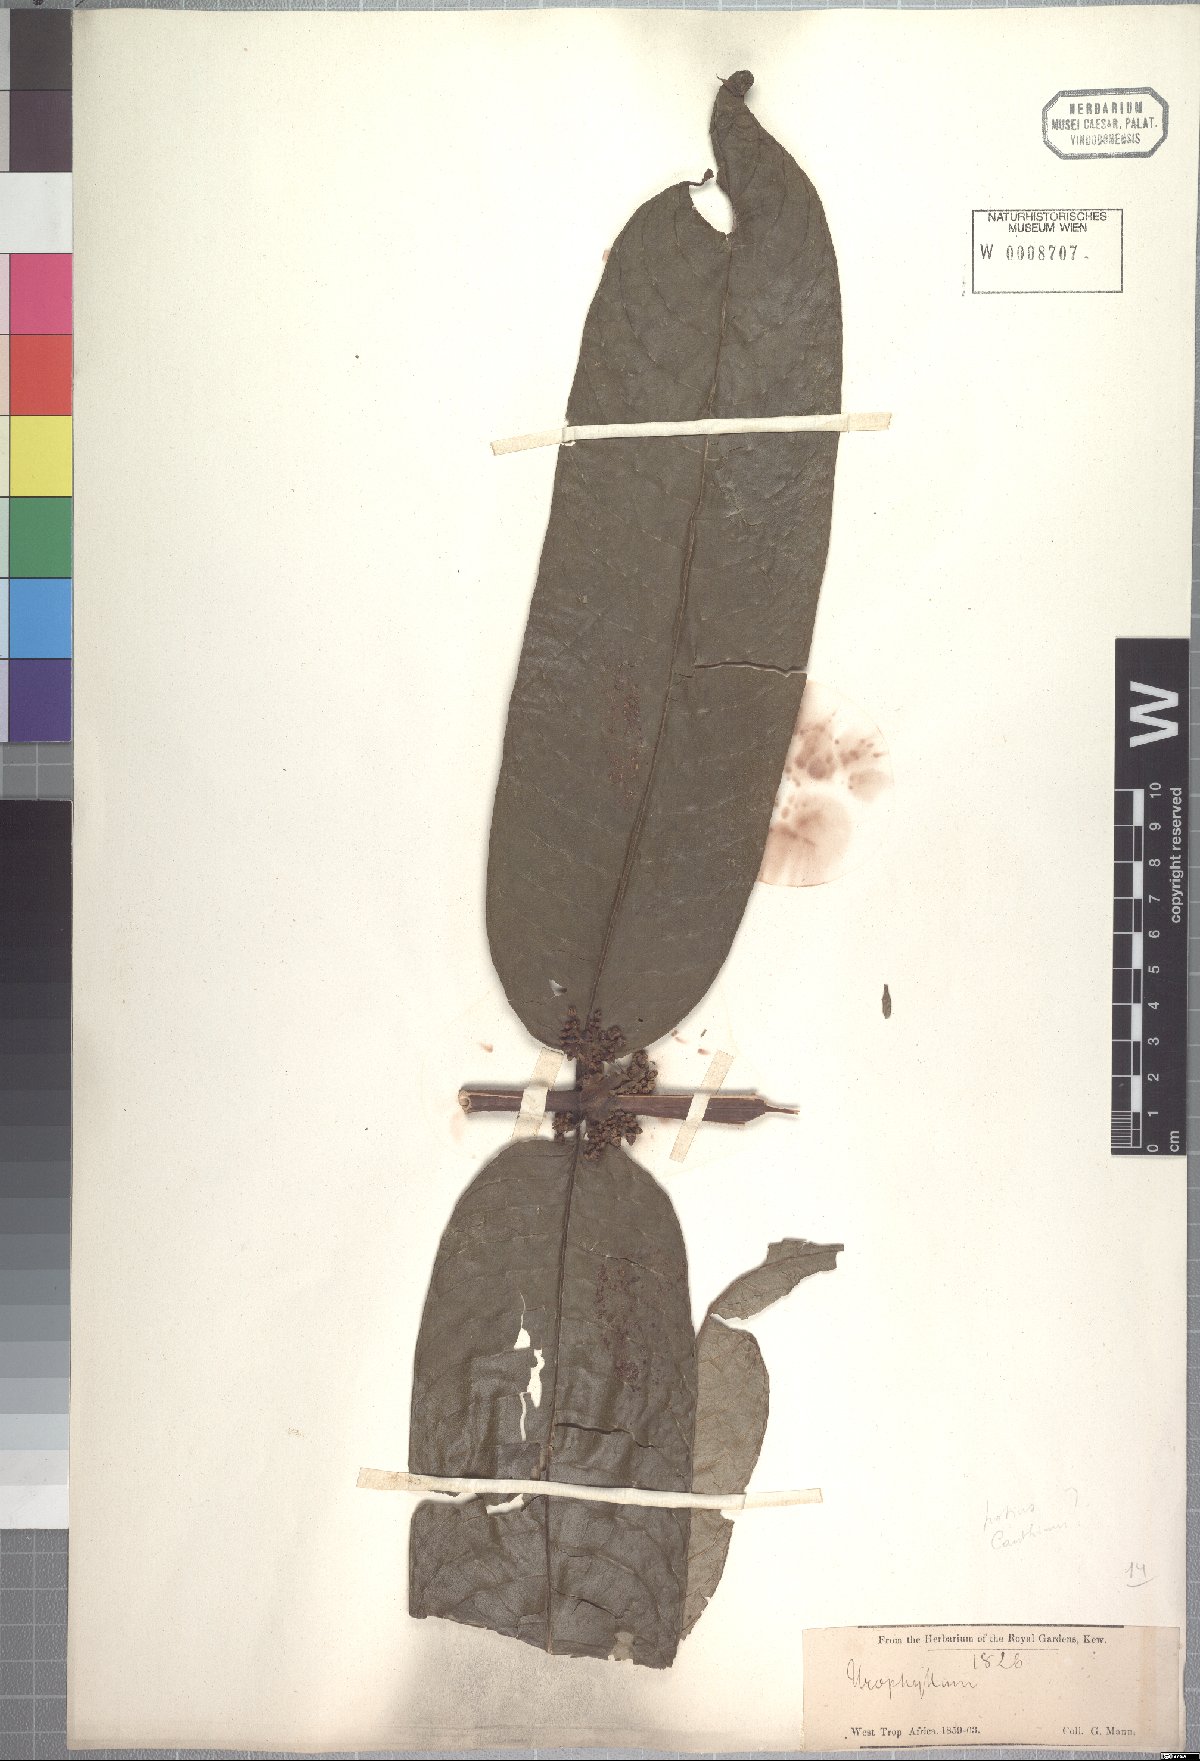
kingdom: Plantae
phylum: Tracheophyta
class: Magnoliopsida
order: Gentianales
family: Rubiaceae
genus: Pauridiantha
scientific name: Pauridiantha callicarpoides
